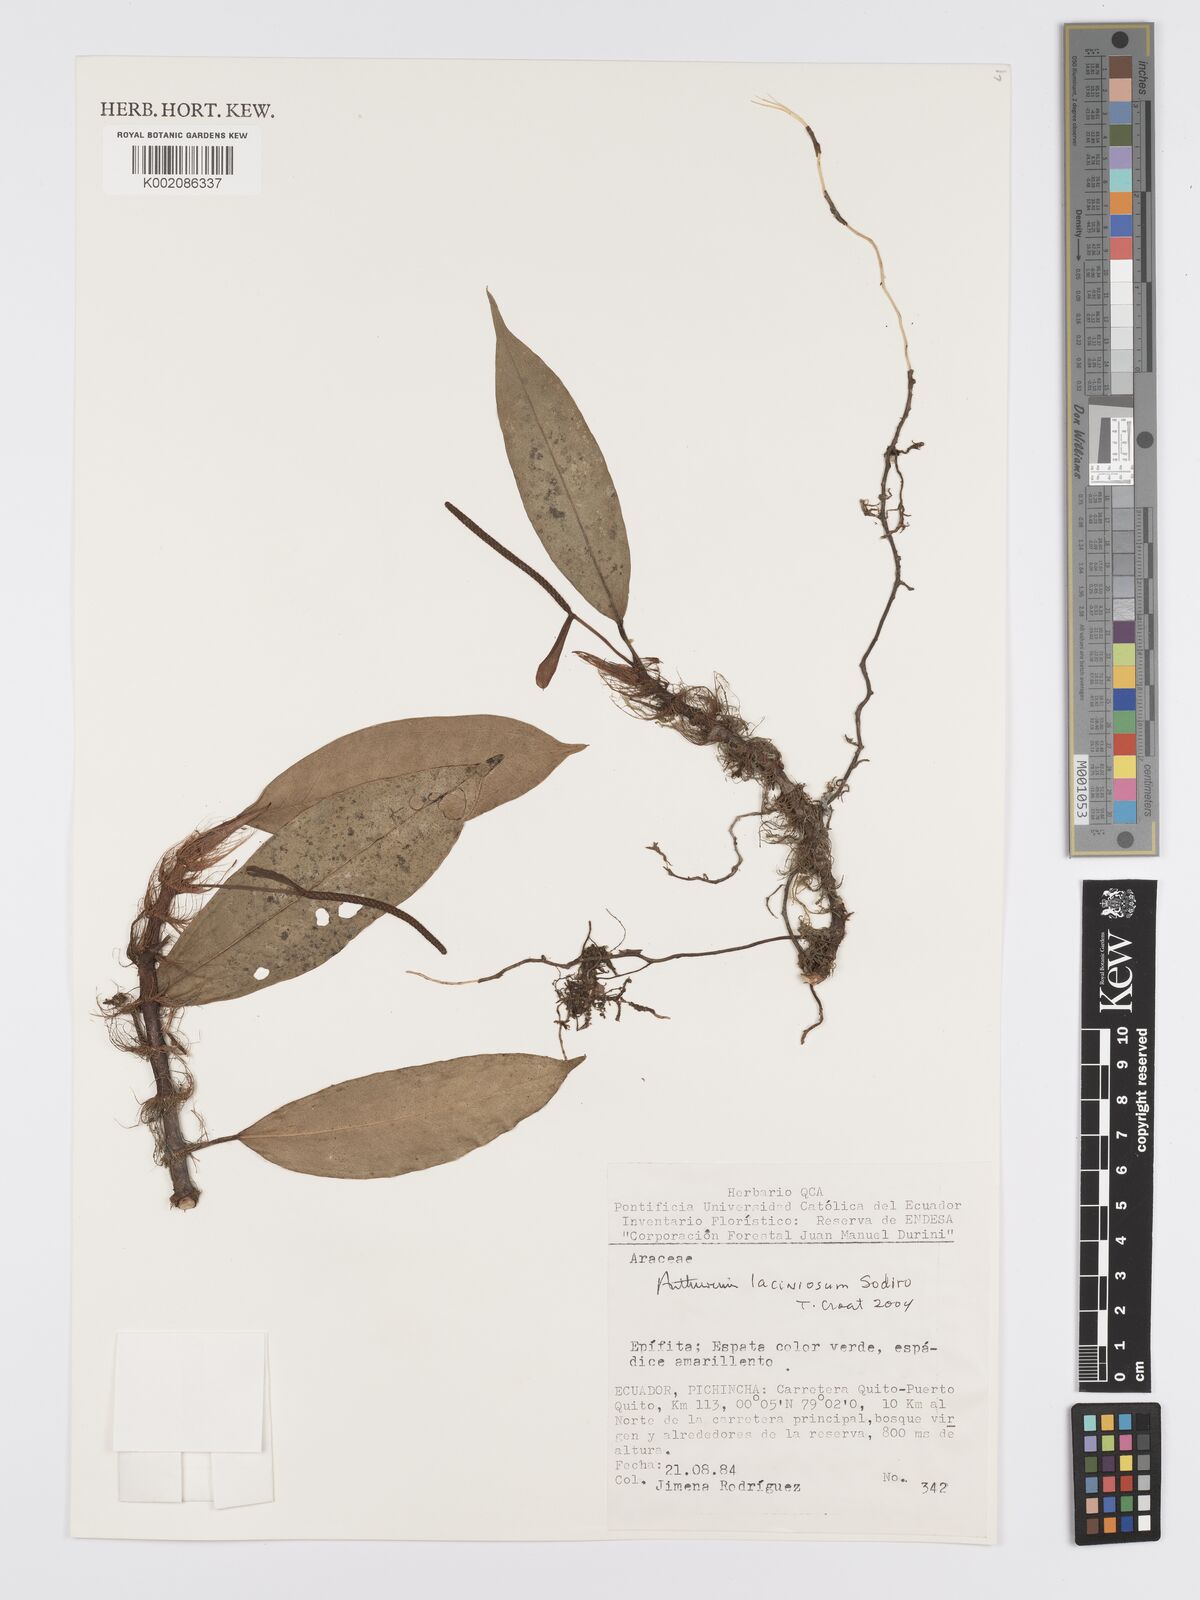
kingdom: Plantae
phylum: Tracheophyta
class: Liliopsida
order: Alismatales
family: Araceae
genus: Anthurium
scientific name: Anthurium laciniosum
